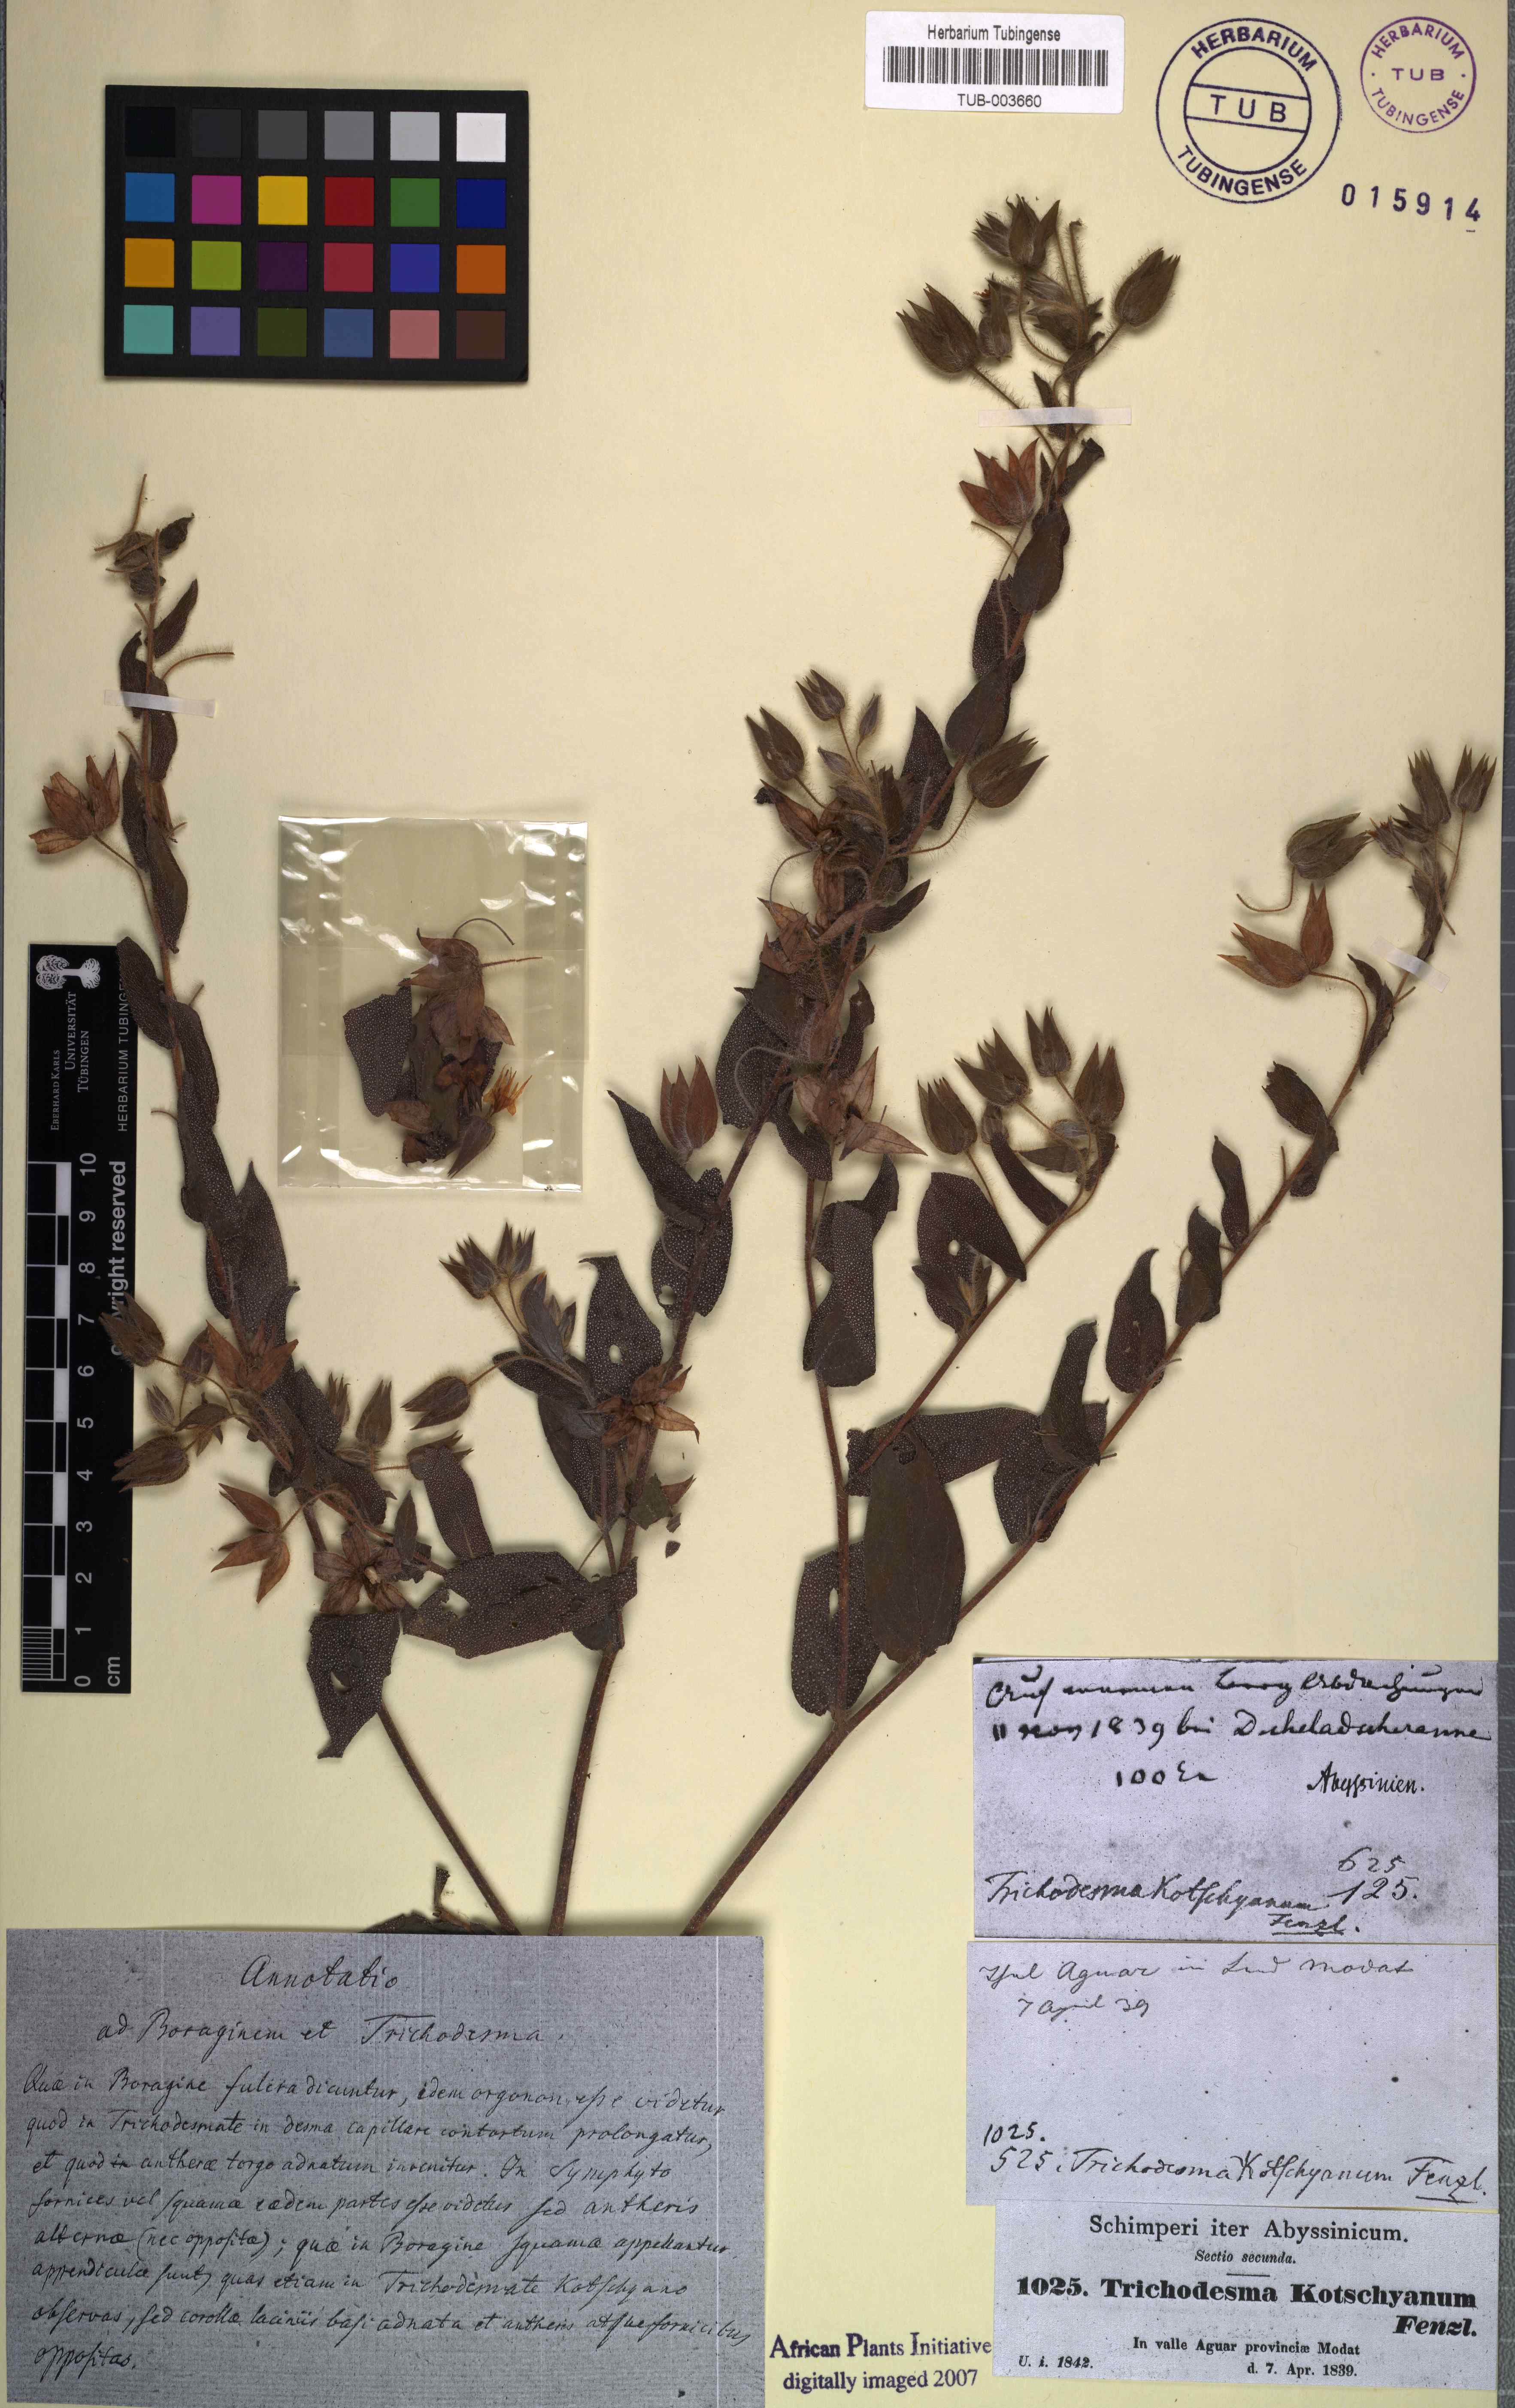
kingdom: Plantae
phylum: Tracheophyta
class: Magnoliopsida
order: Boraginales
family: Boraginaceae
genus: Trichodesma
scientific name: Trichodesma zeylanicum
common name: Camelbush
